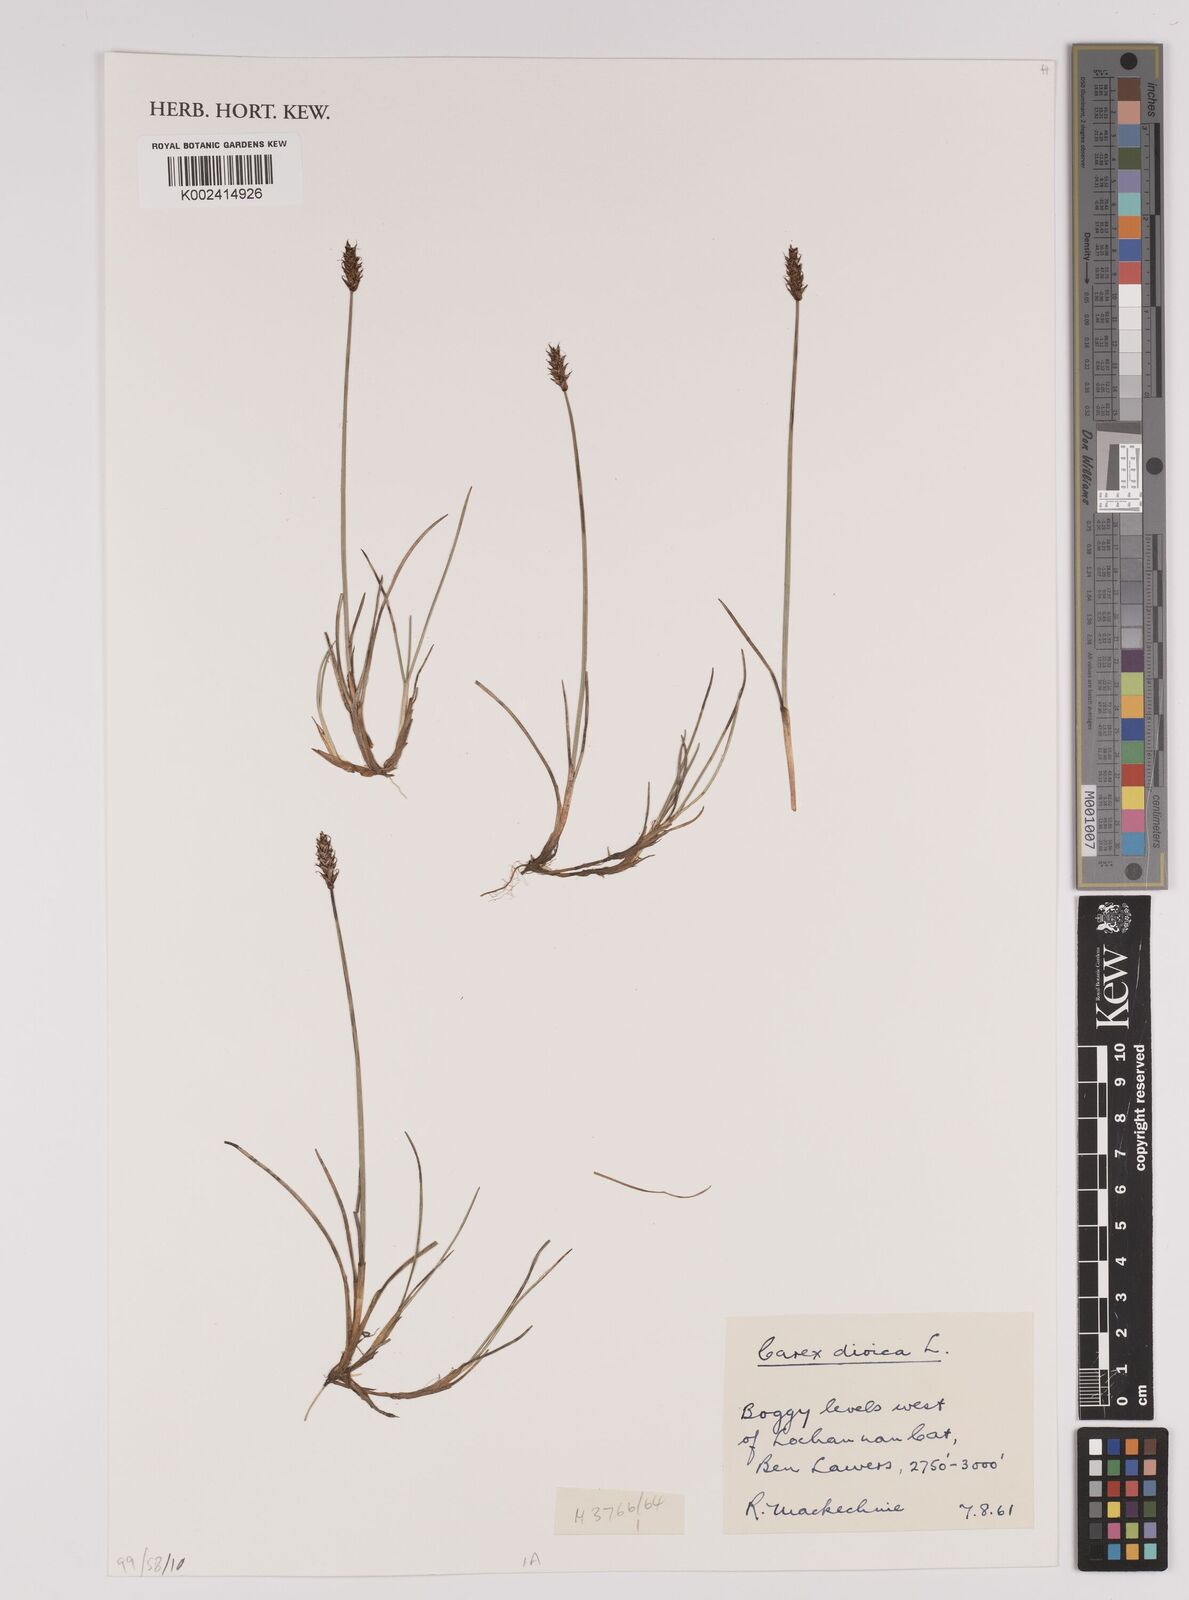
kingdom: Plantae
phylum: Tracheophyta
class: Liliopsida
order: Poales
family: Cyperaceae
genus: Carex
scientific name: Carex dioica
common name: Dioecious sedge
